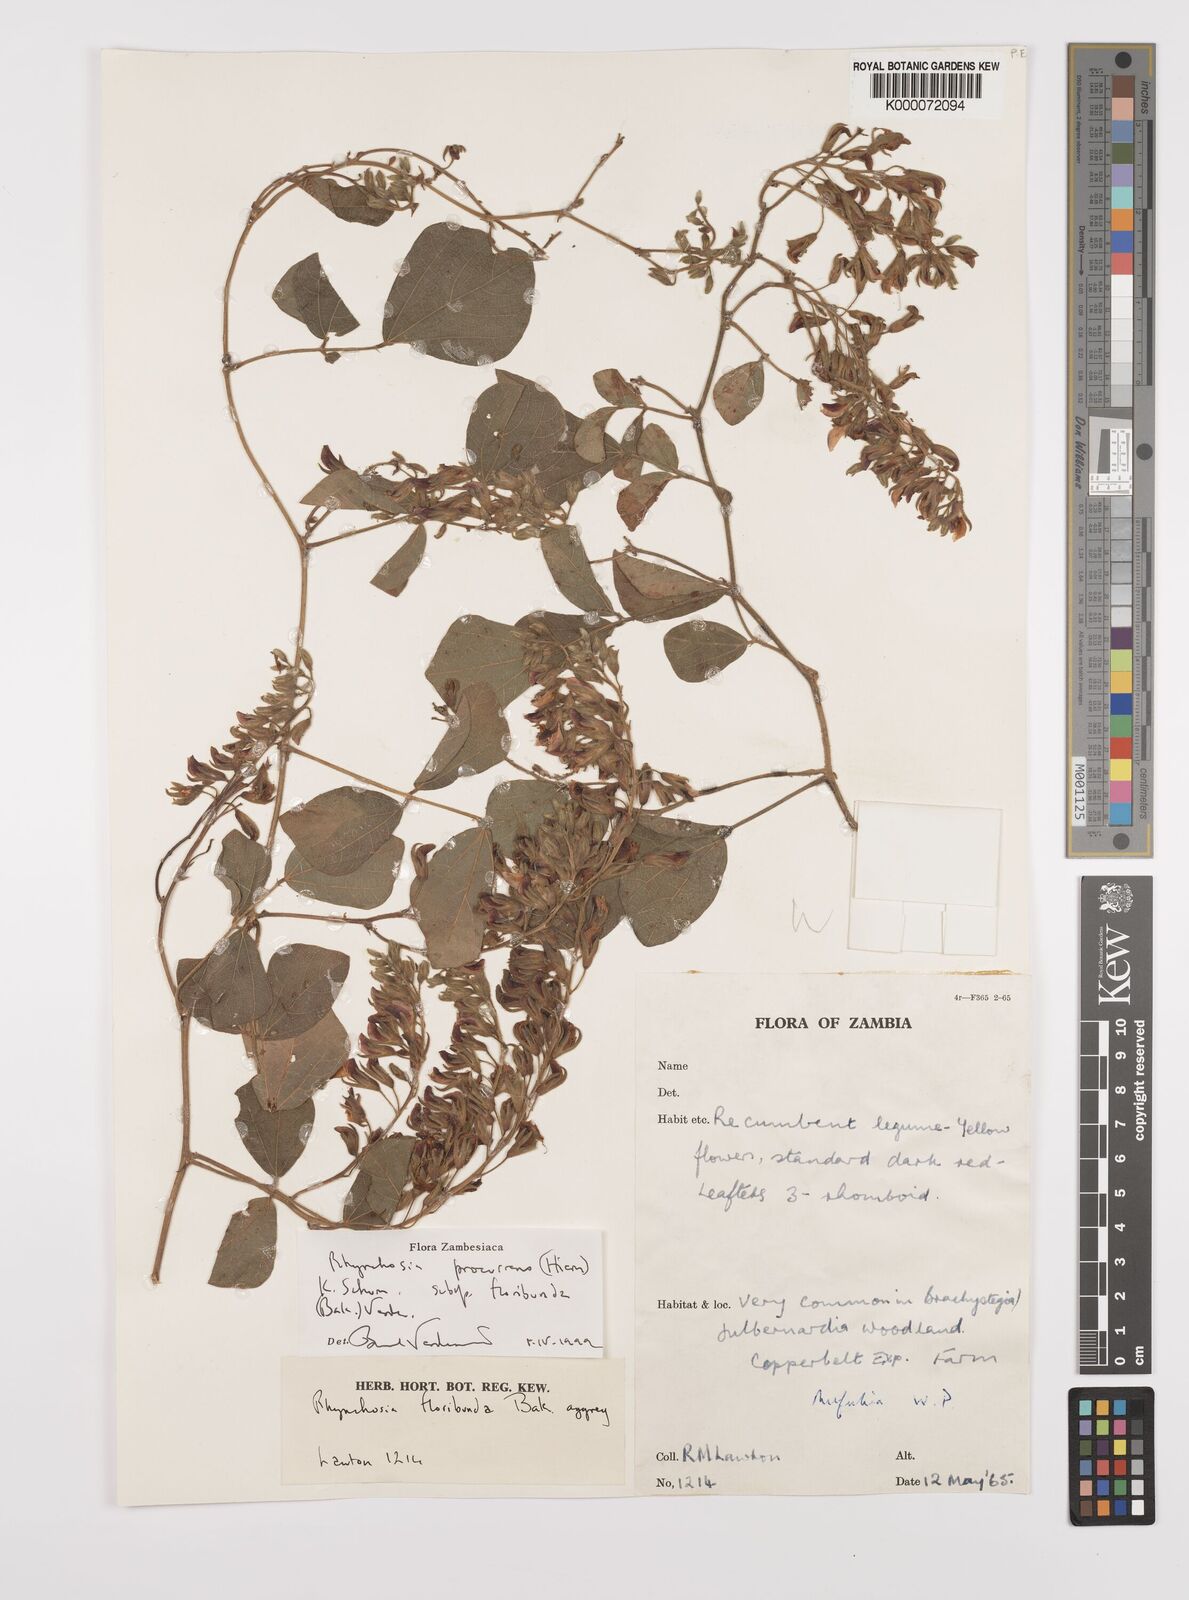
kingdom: Plantae
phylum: Tracheophyta
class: Magnoliopsida
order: Fabales
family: Fabaceae
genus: Rhynchosia
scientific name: Rhynchosia procurrens
